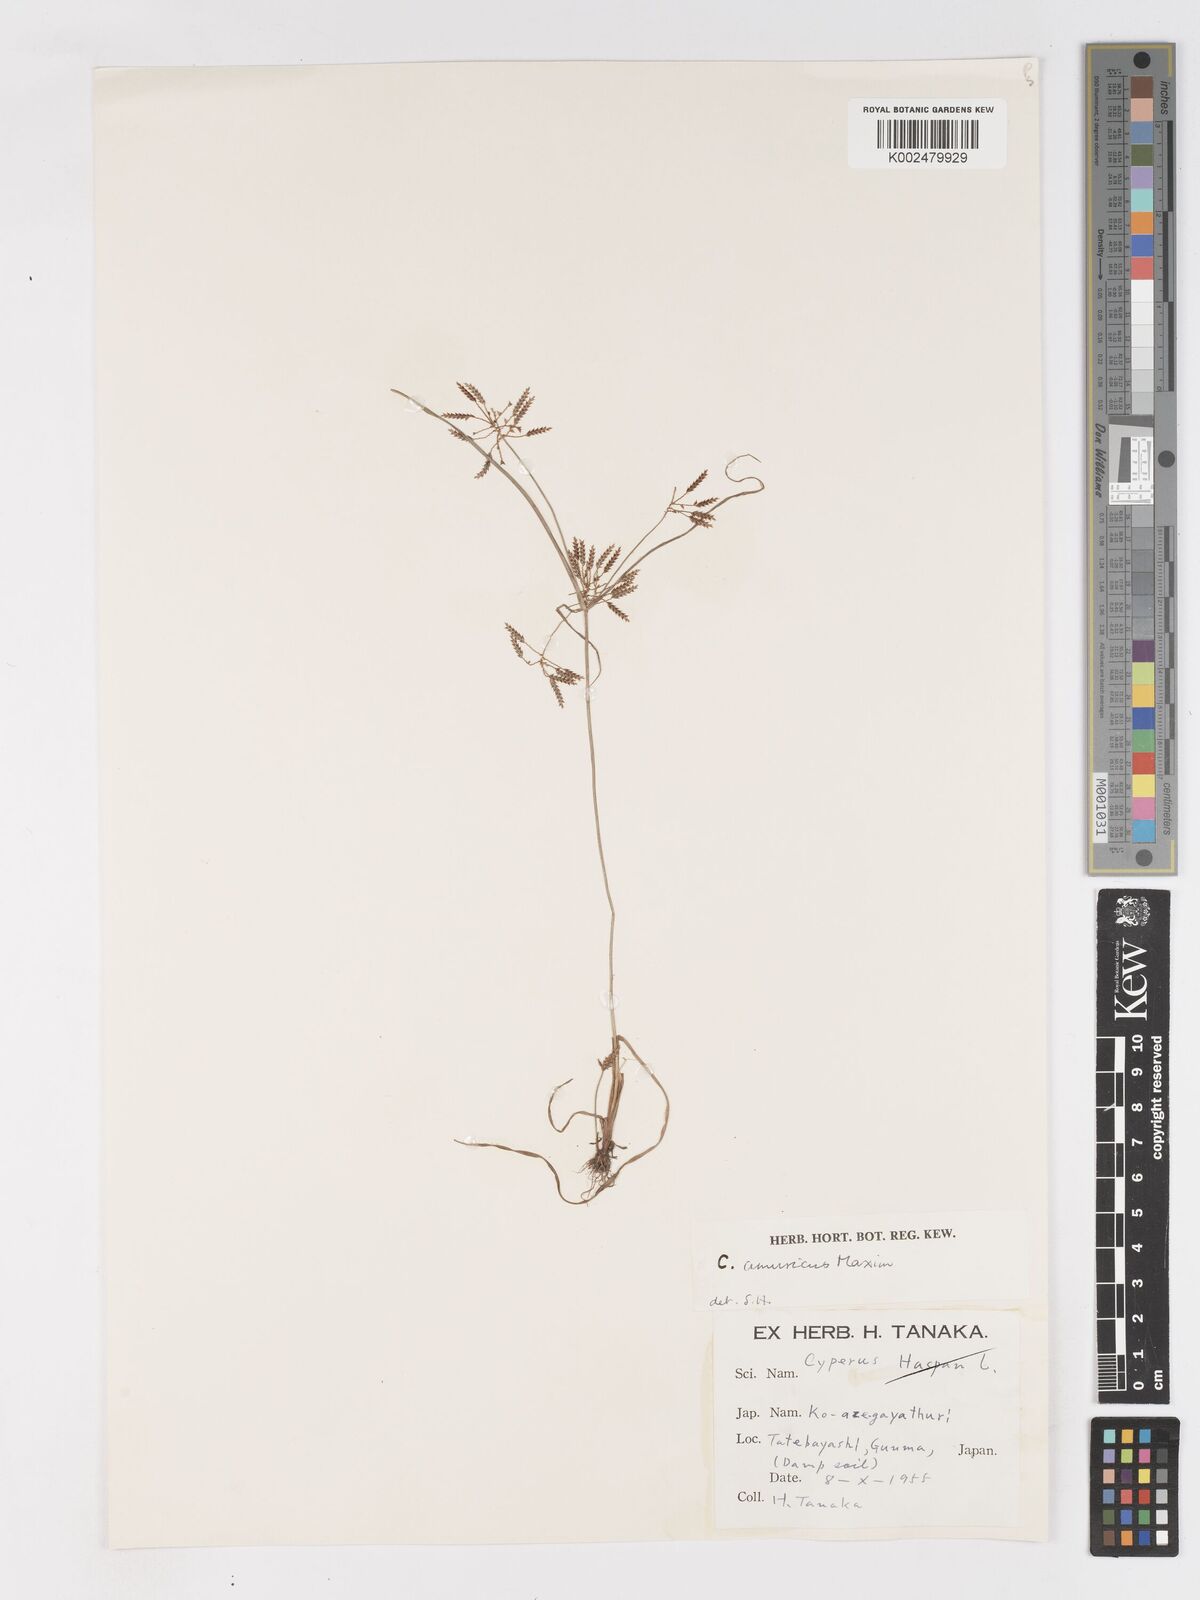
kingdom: Plantae
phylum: Tracheophyta
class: Liliopsida
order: Poales
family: Cyperaceae
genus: Cyperus
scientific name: Cyperus amuricus
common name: Asian flatsedge
